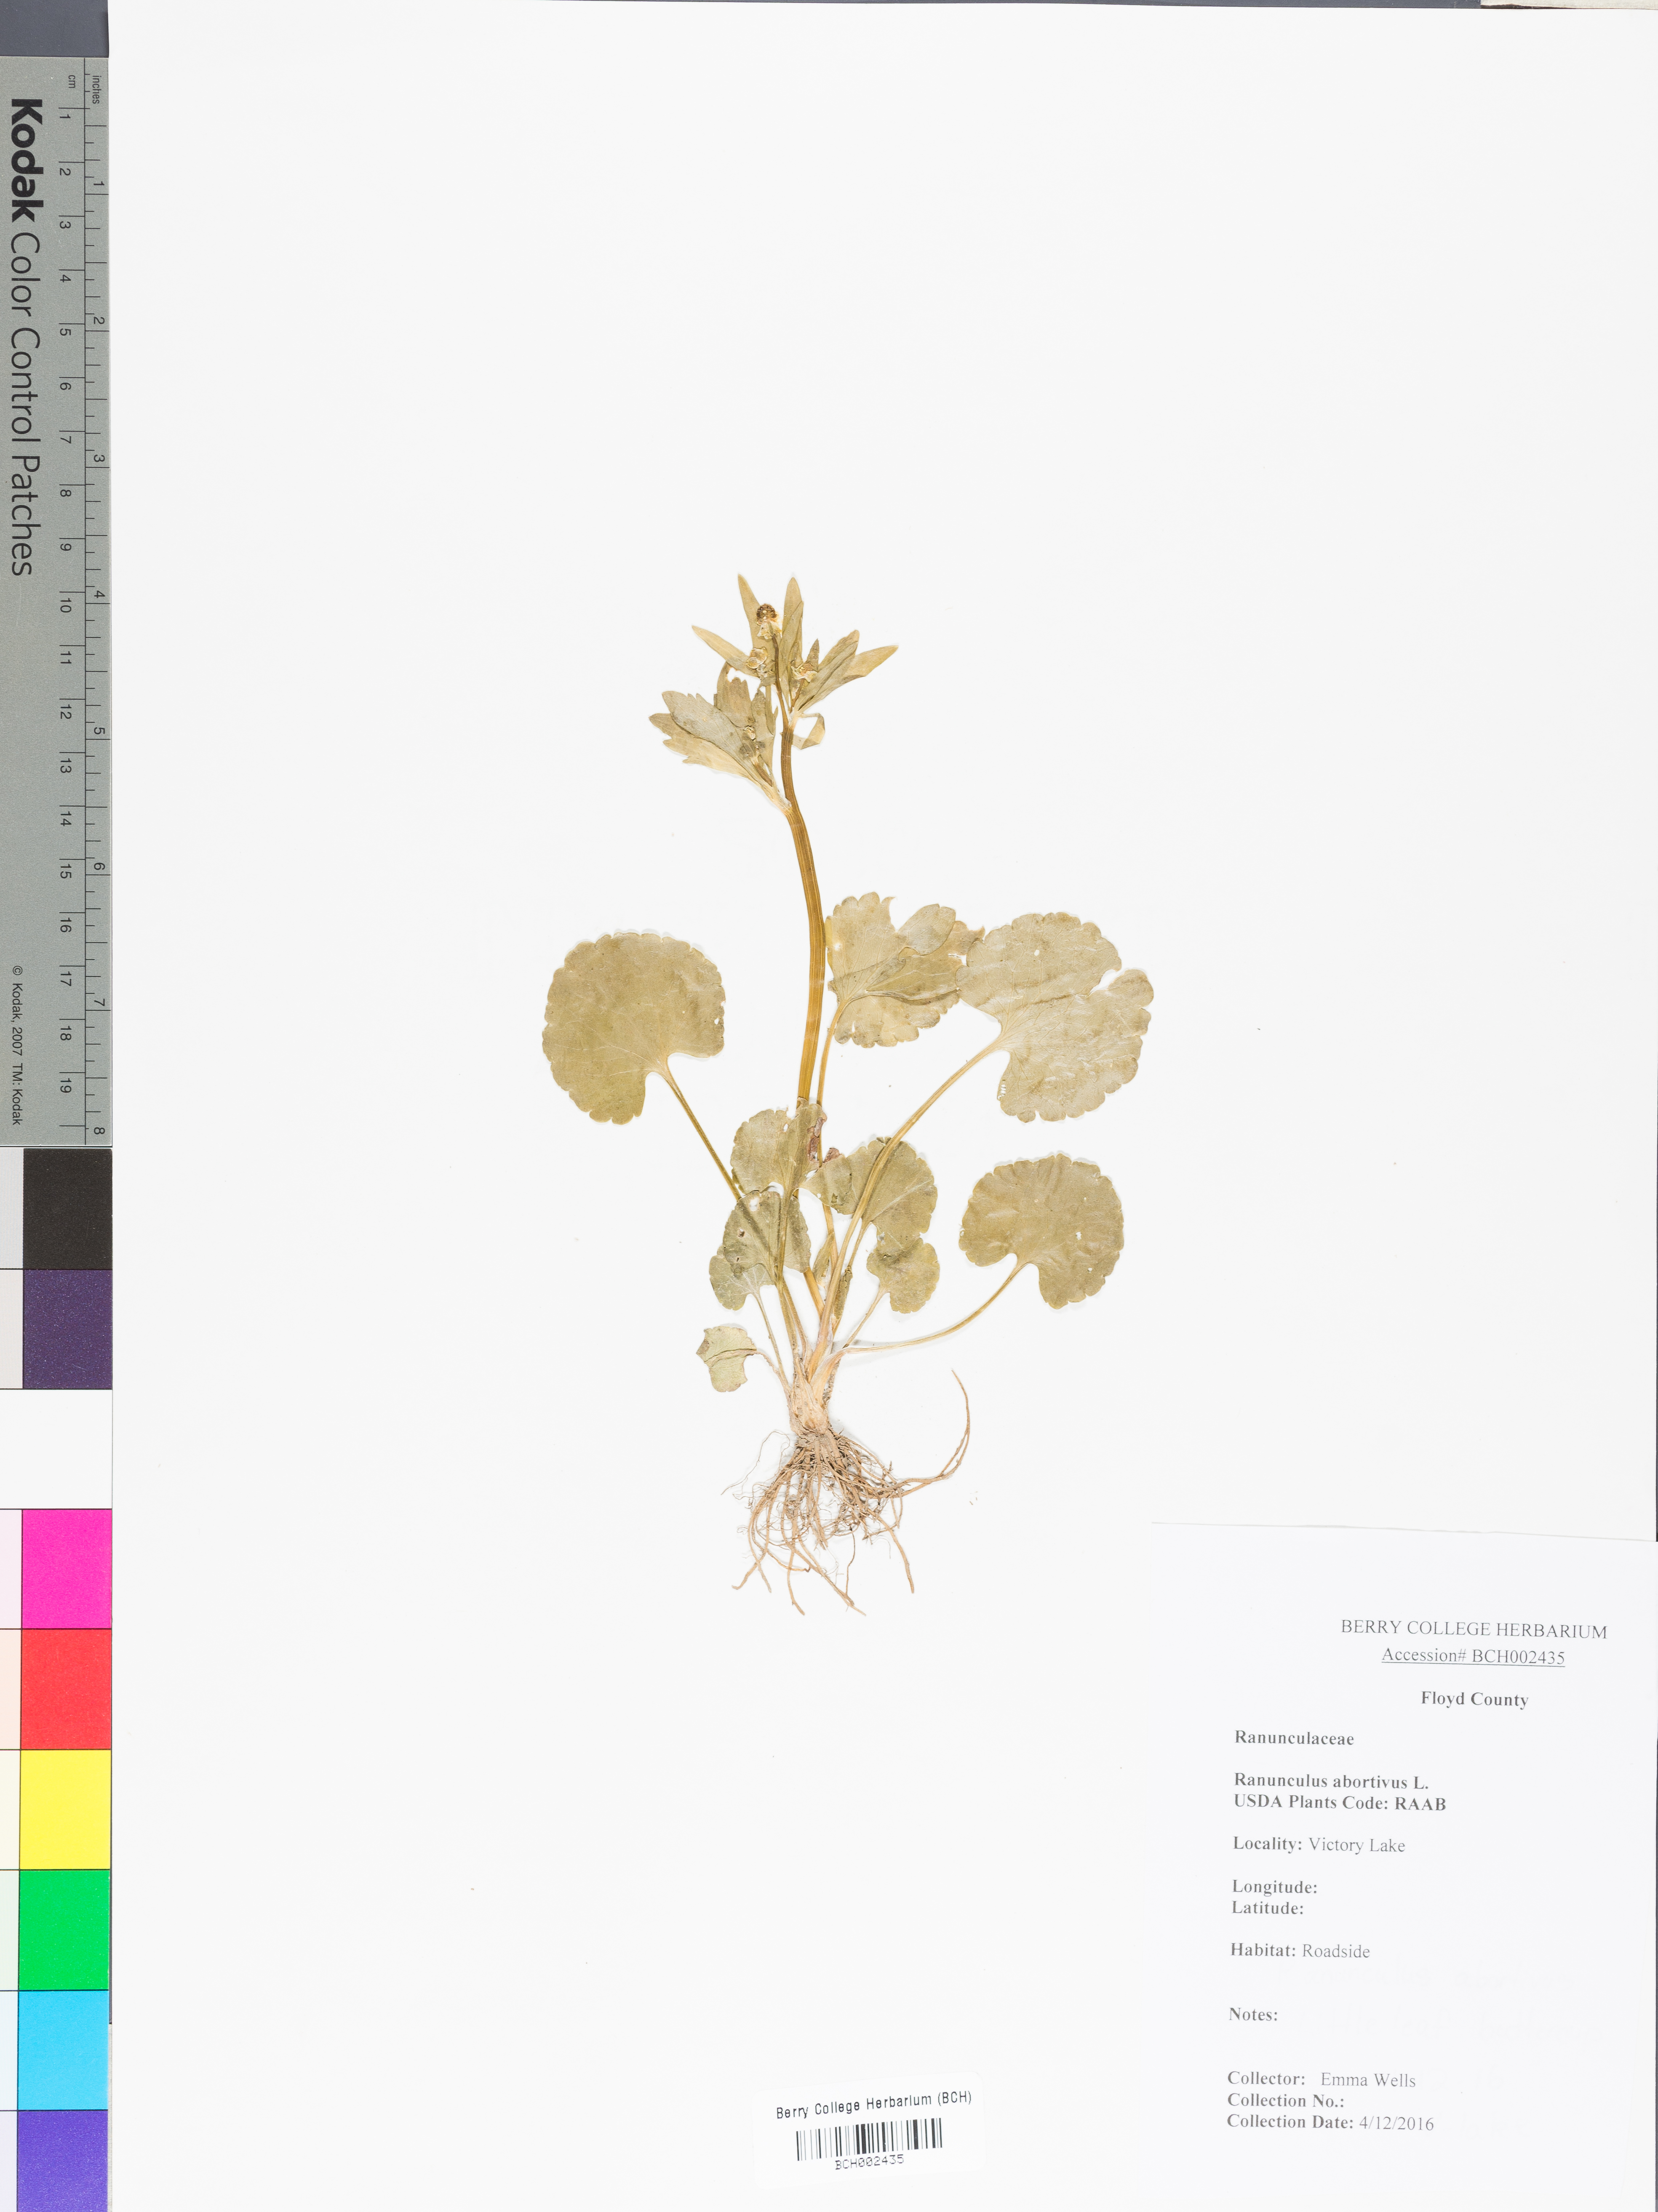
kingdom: Plantae
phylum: Tracheophyta
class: Magnoliopsida
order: Ranunculales
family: Ranunculaceae
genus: Ranunculus
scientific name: Ranunculus abortivus
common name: Early wood buttercup
